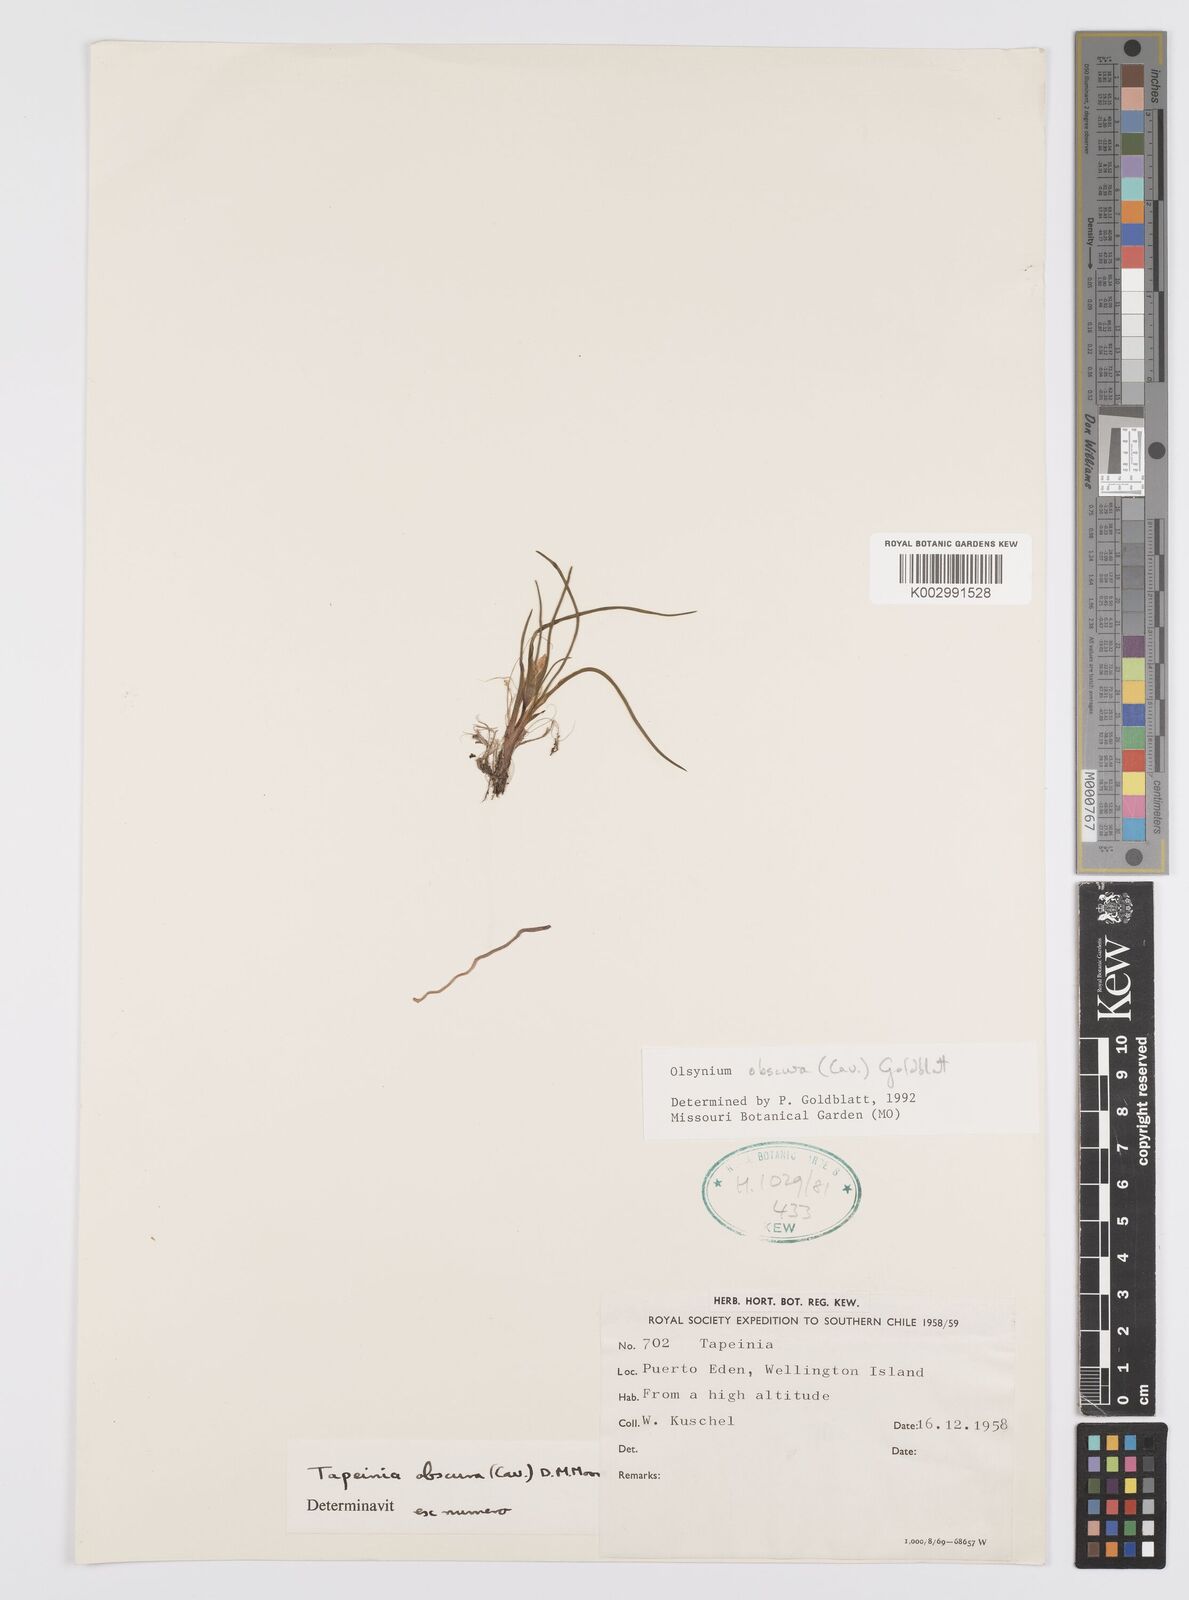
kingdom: Plantae
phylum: Tracheophyta
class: Liliopsida
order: Asparagales
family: Iridaceae
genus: Olsynium
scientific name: Olsynium obscurum
